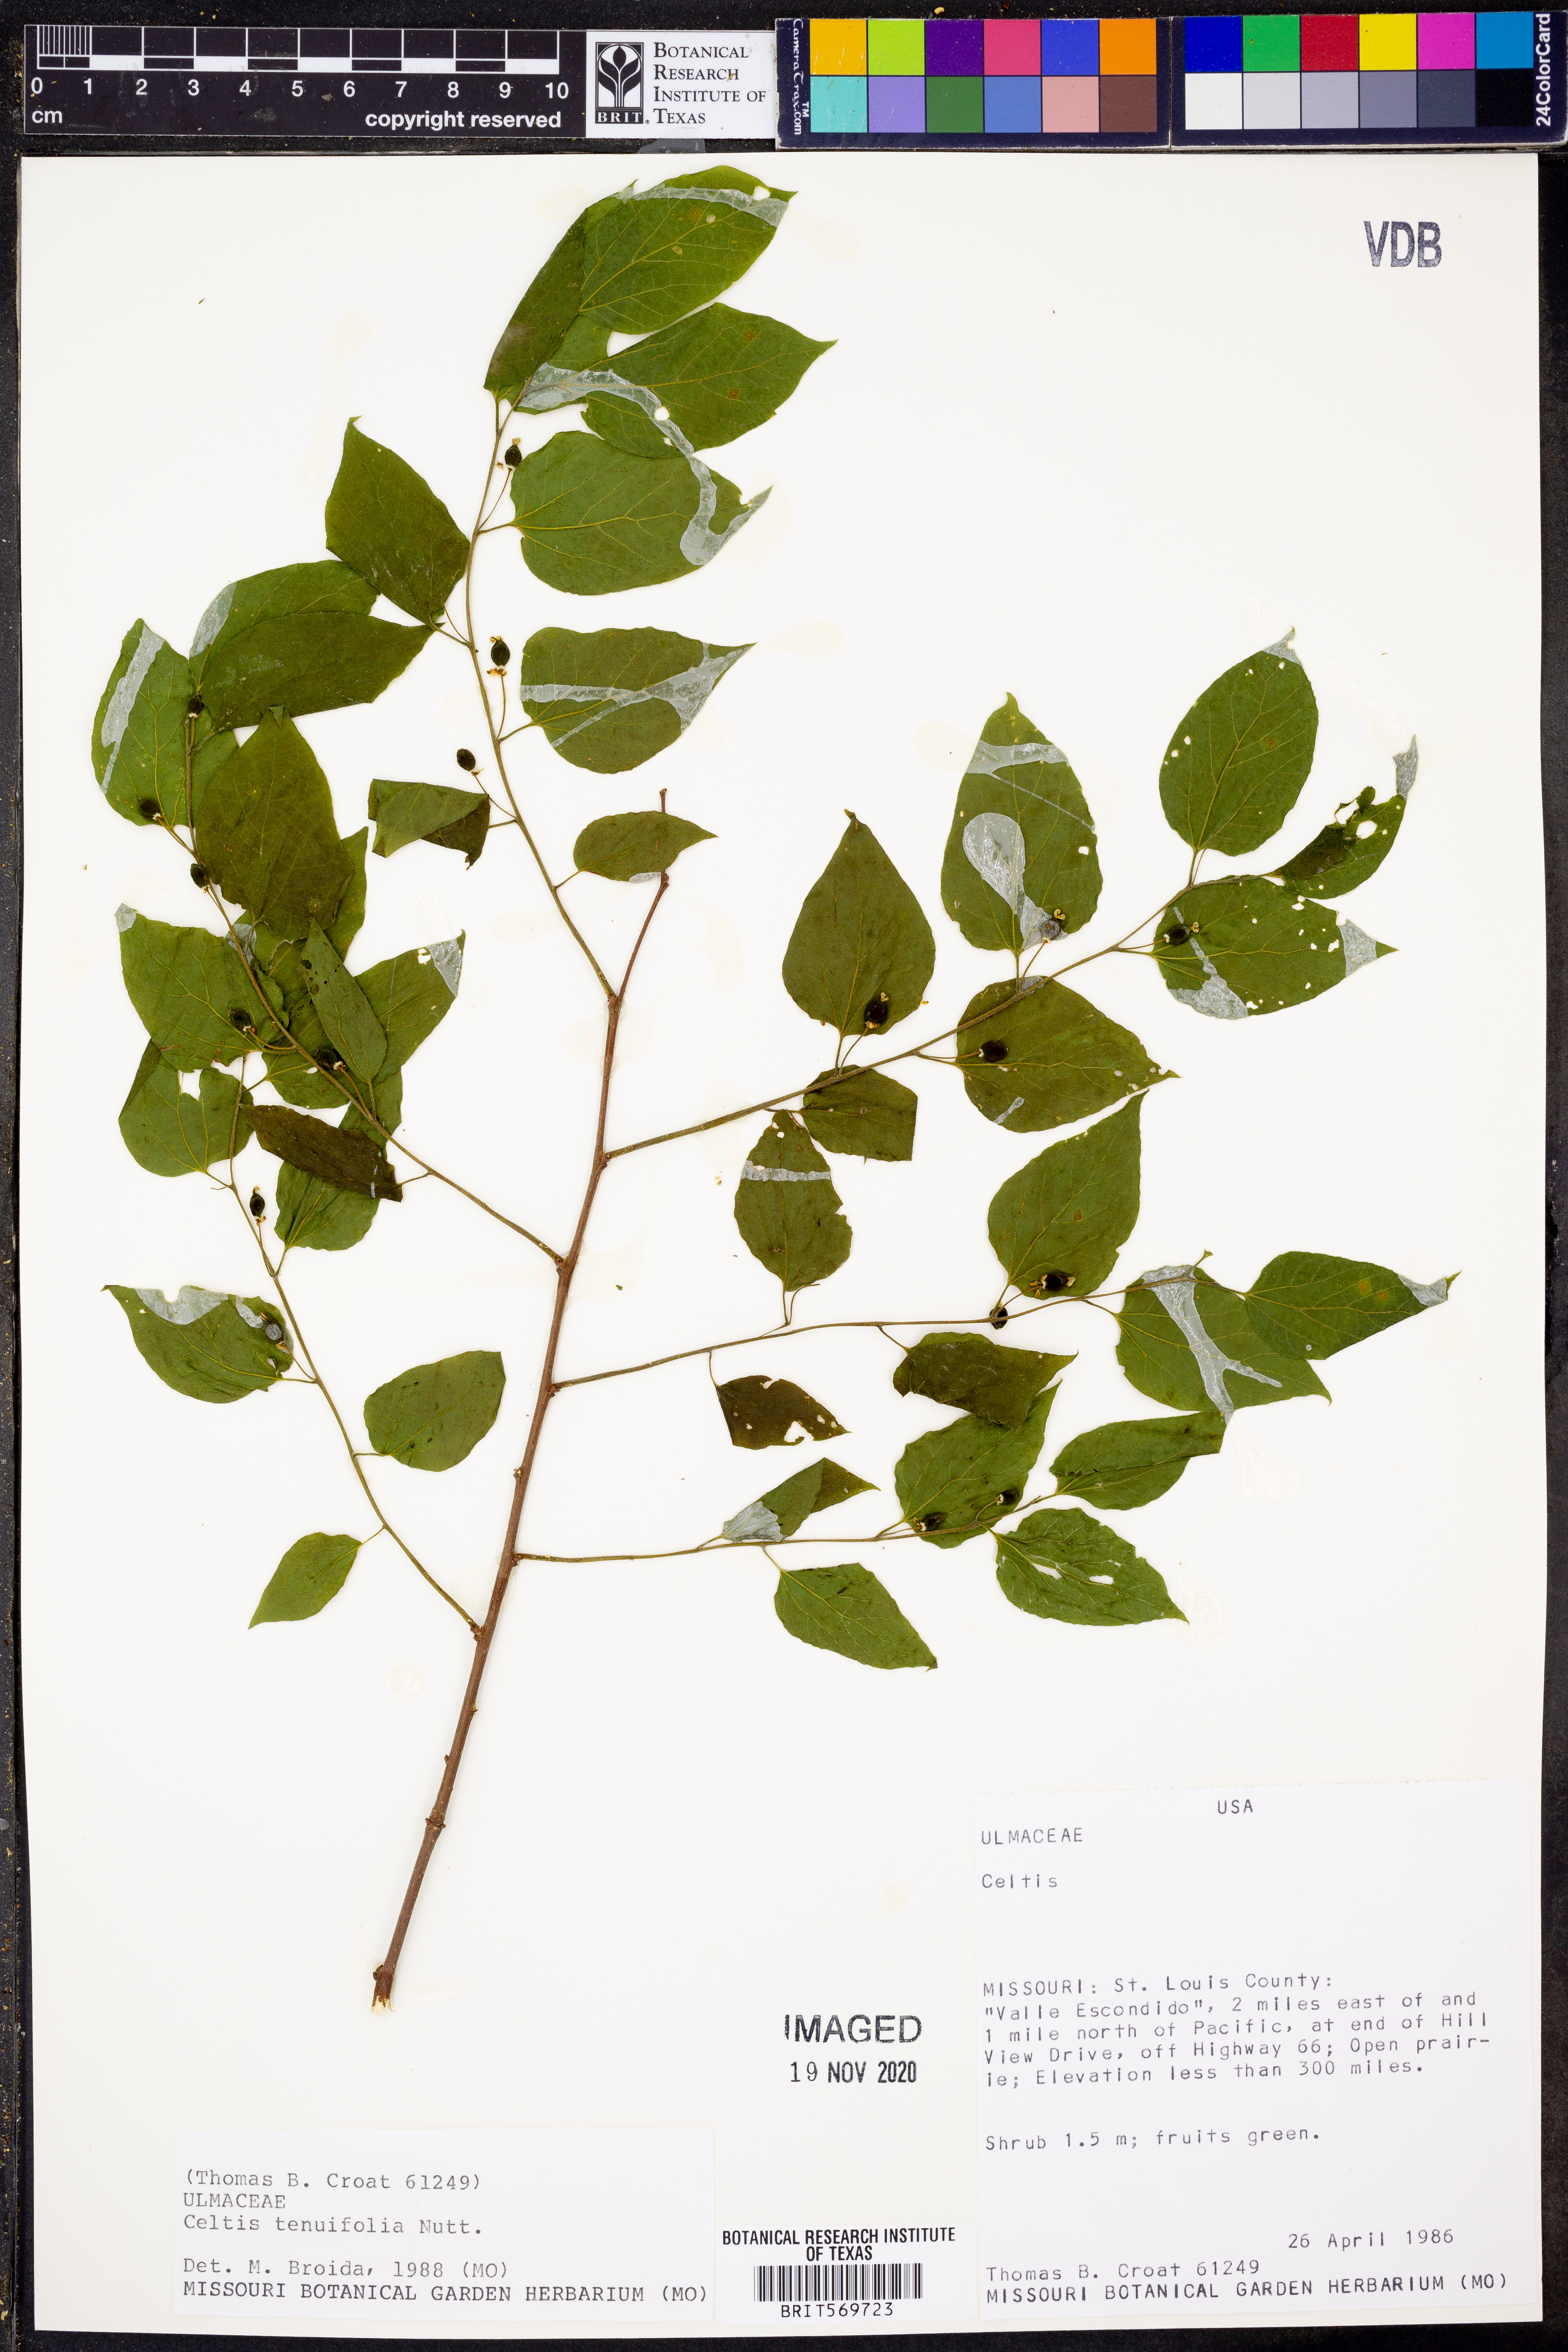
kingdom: Plantae
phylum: Tracheophyta
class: Magnoliopsida
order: Rosales
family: Cannabaceae
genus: Celtis
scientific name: Celtis tenuifolia
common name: Georgia hackberry
